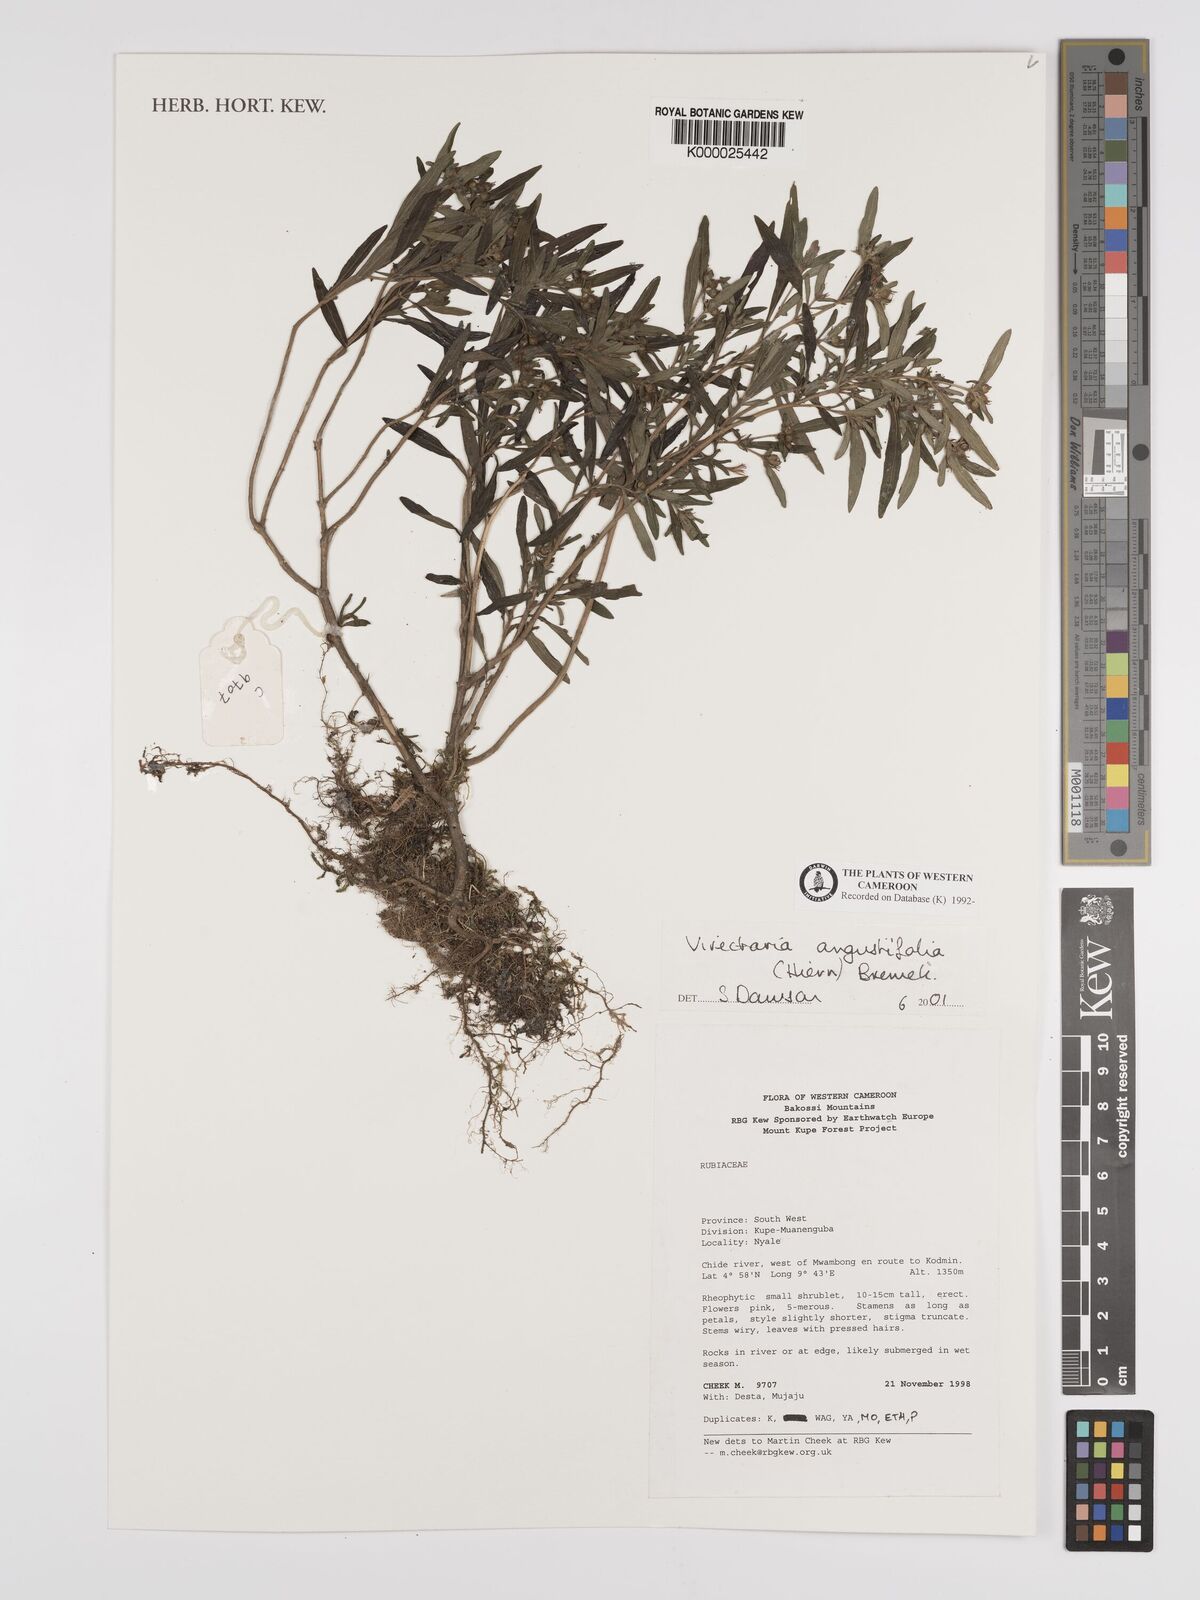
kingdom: Plantae
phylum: Tracheophyta
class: Magnoliopsida
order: Gentianales
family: Rubiaceae
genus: Virectaria
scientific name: Virectaria angustifolia
